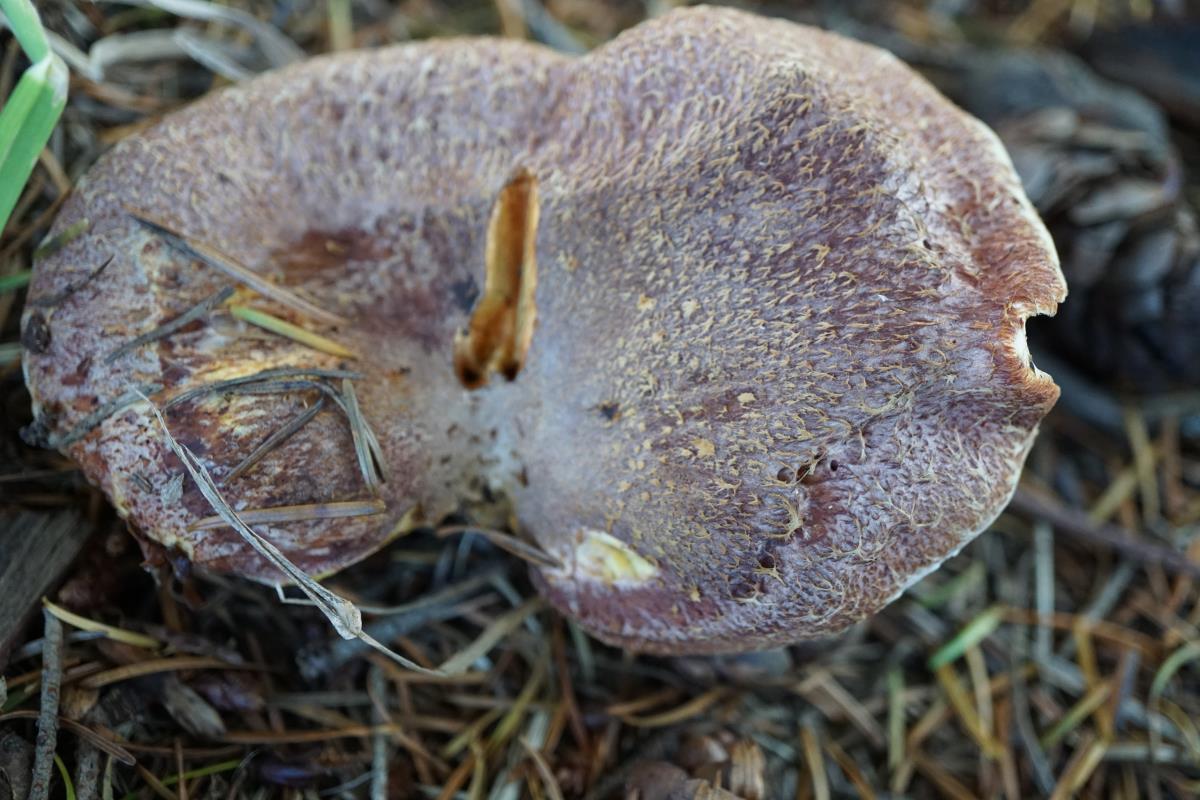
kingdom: Fungi
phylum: Basidiomycota
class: Agaricomycetes
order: Boletales
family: Suillaceae
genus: Suillus
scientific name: Suillus lakei
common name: Western painted suillus
